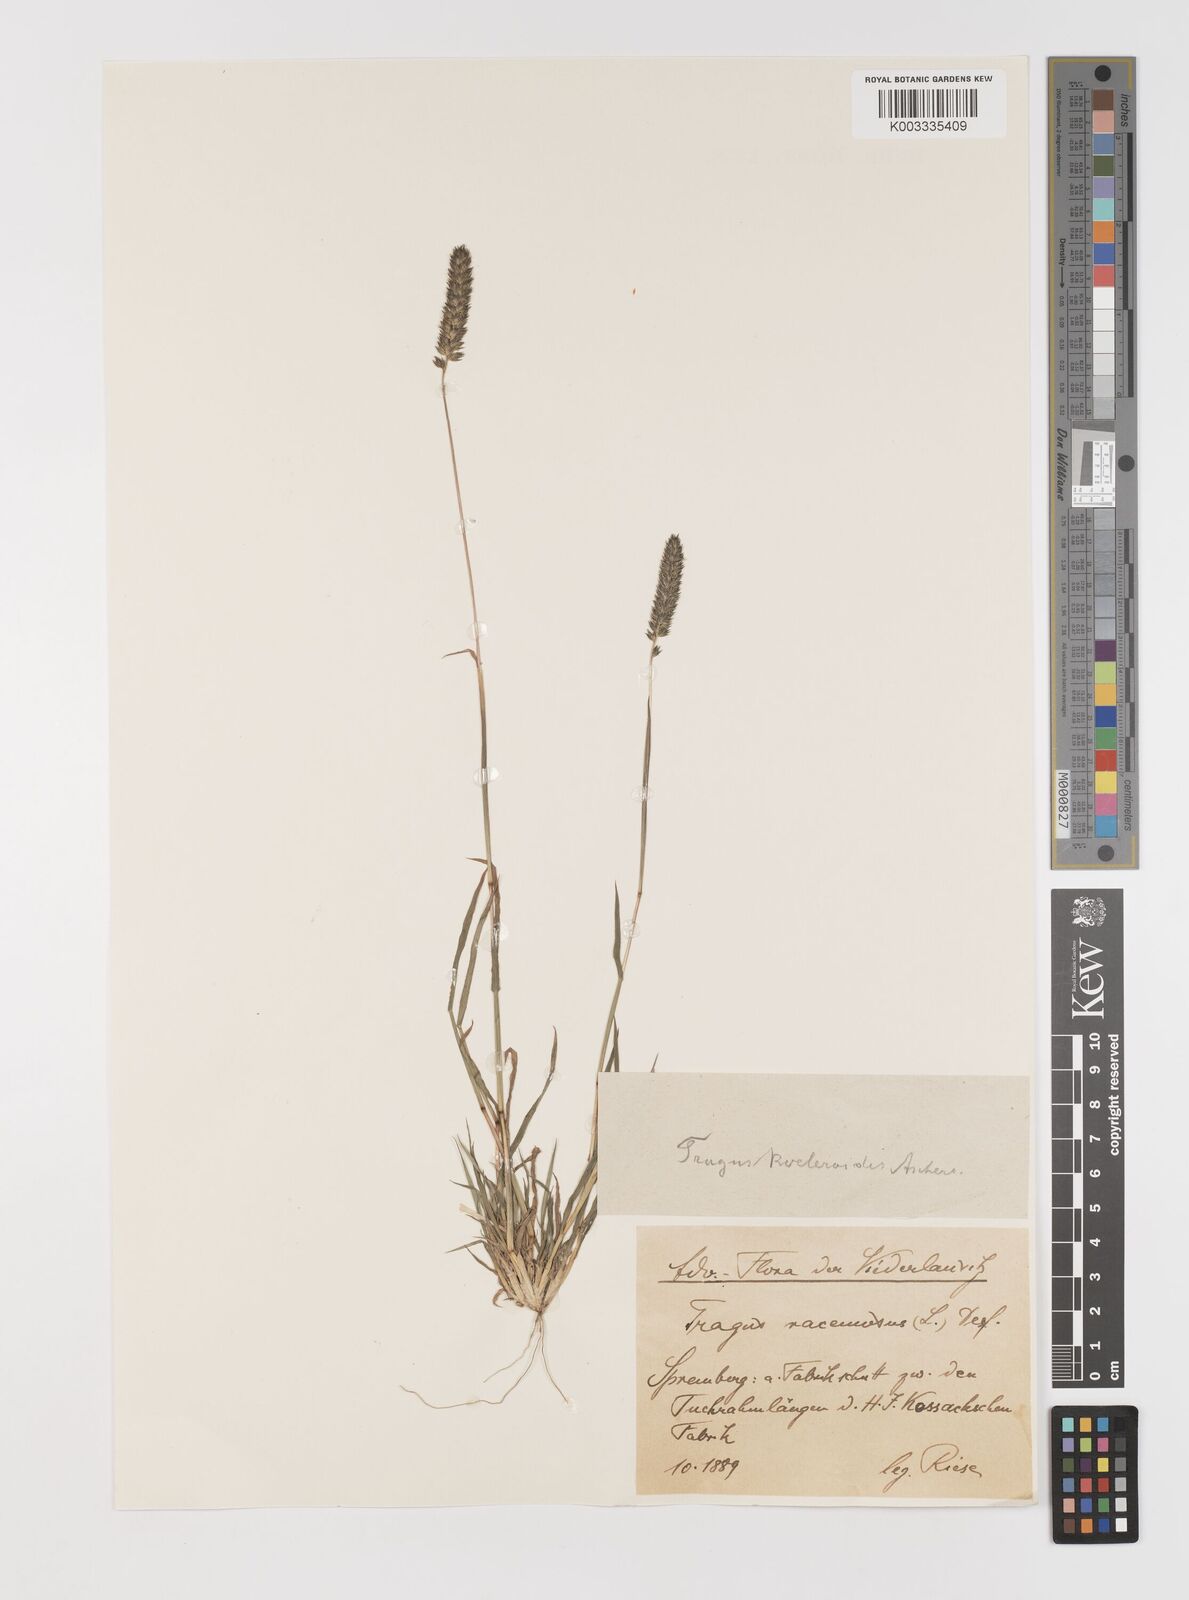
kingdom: Plantae
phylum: Tracheophyta
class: Liliopsida
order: Poales
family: Poaceae
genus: Tragus
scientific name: Tragus koelerioides
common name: Creeping carrot-seed grass
